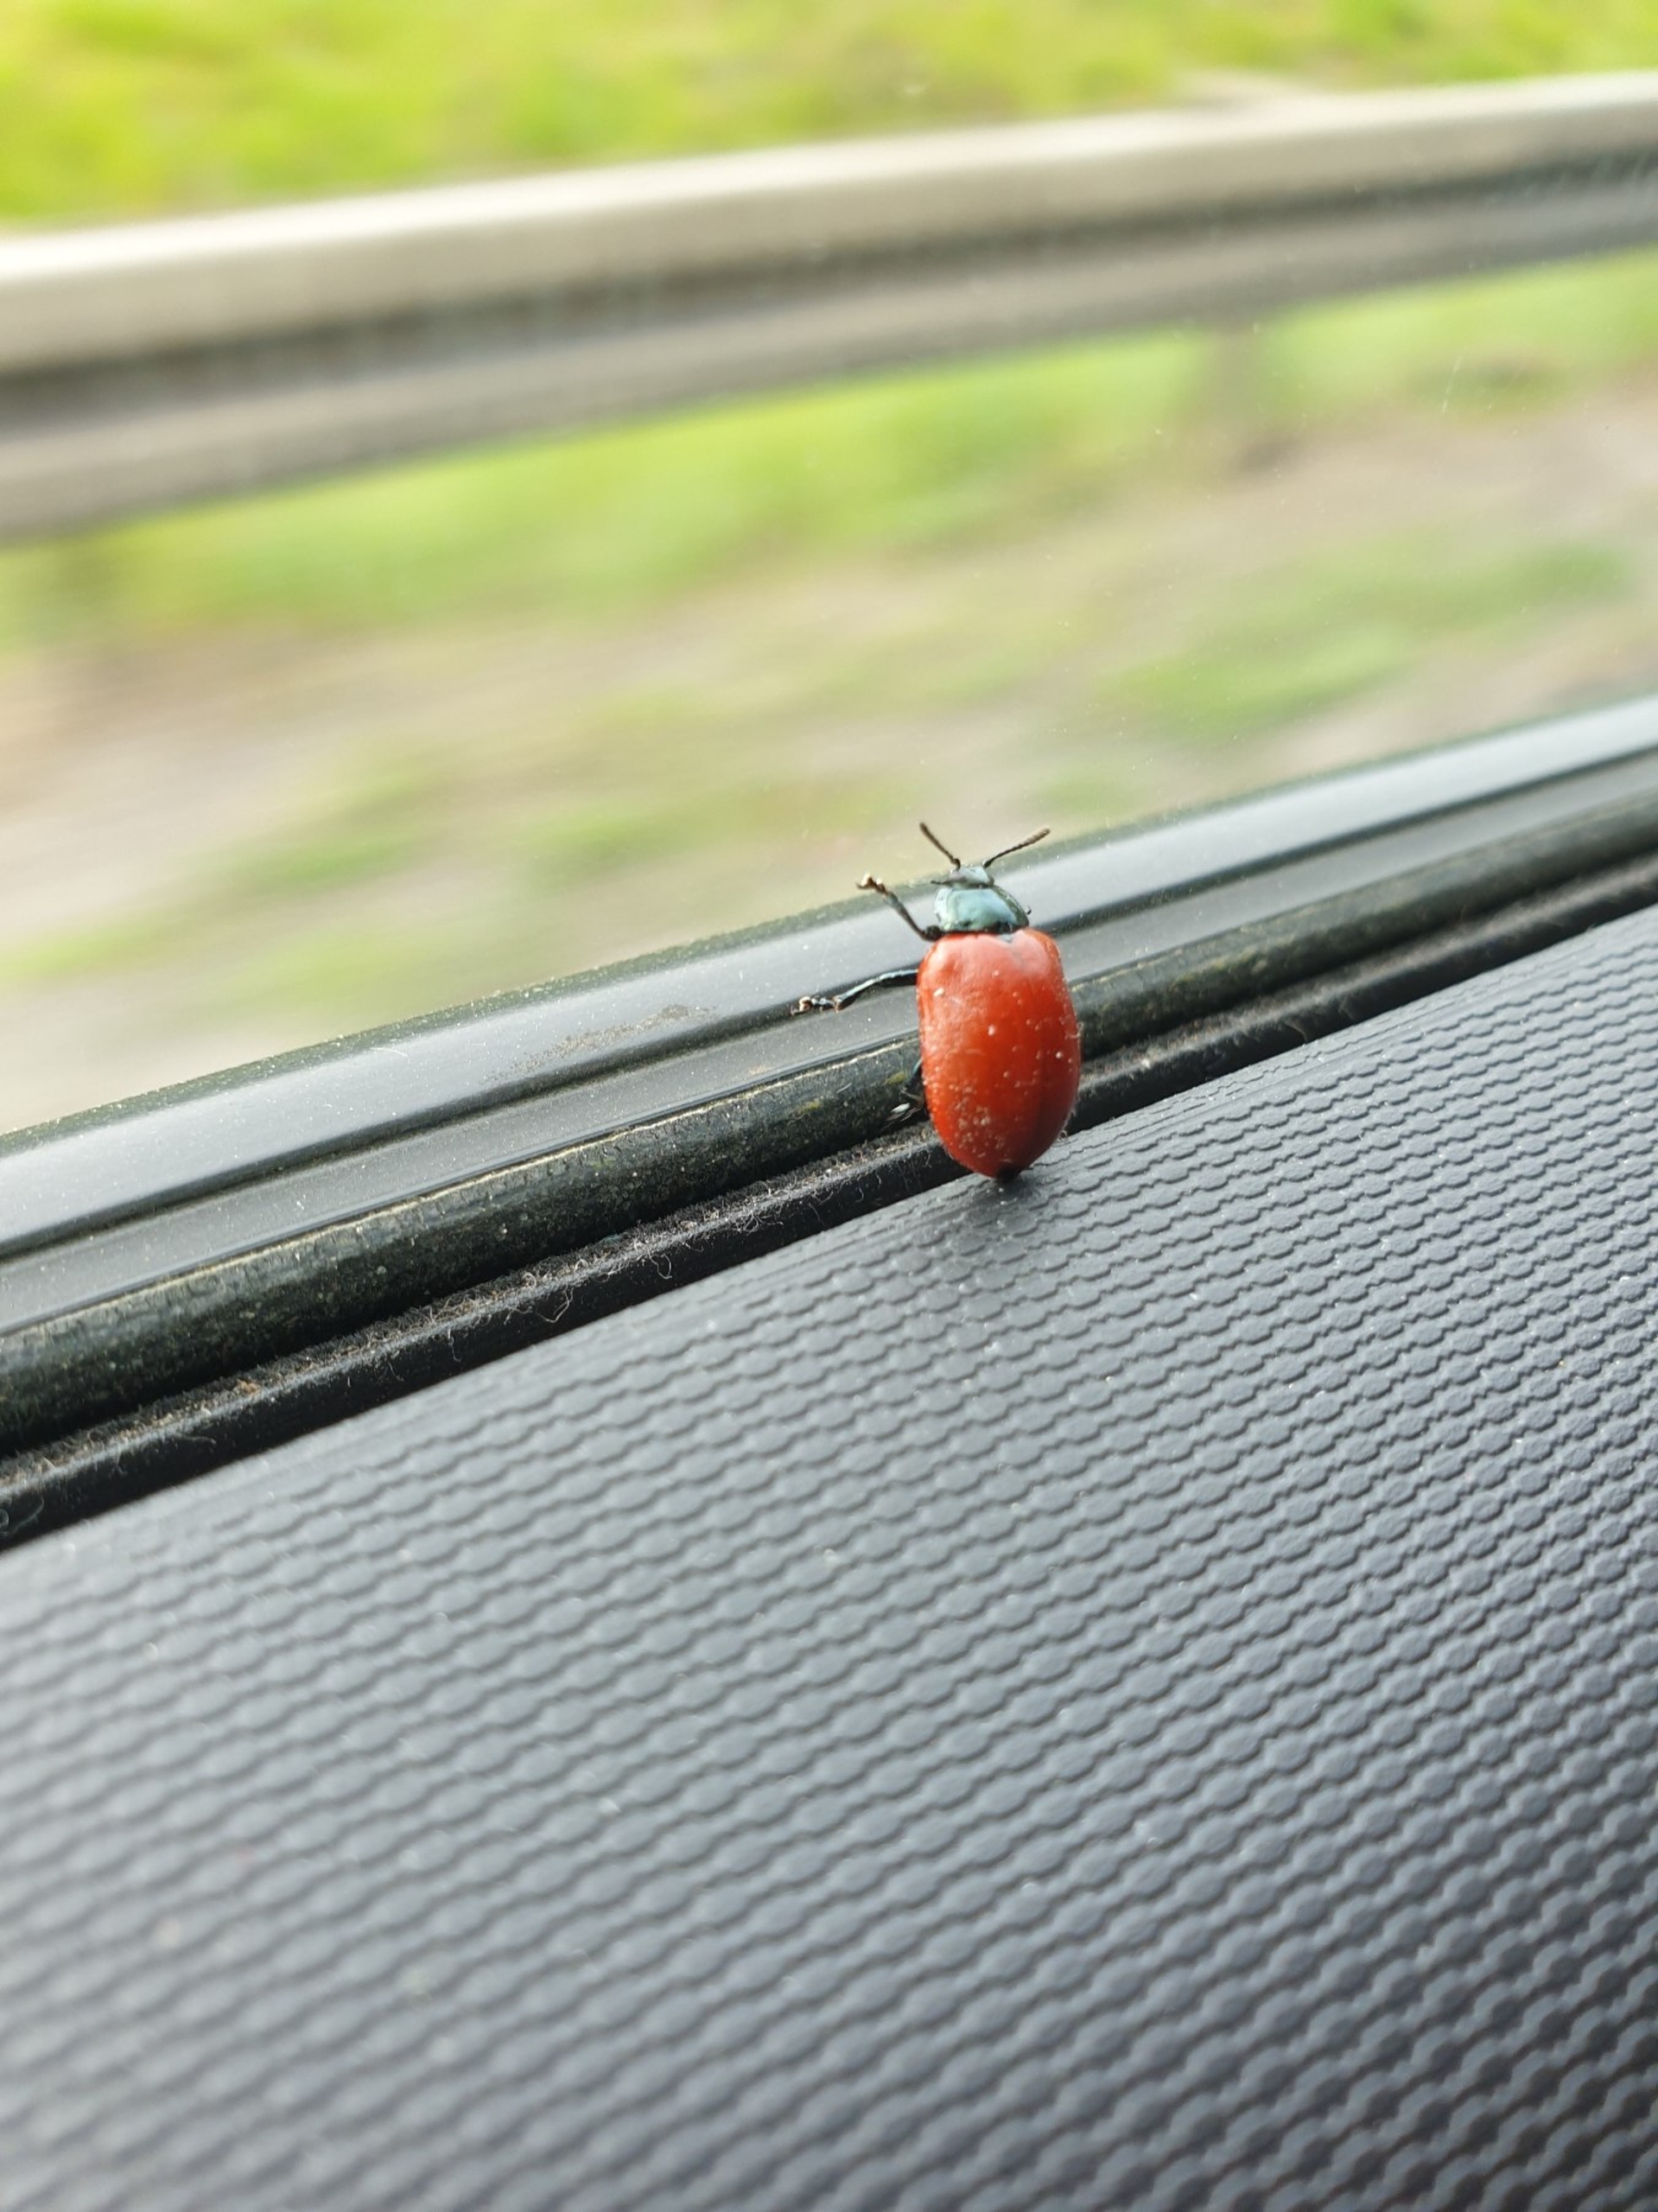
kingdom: Animalia
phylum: Arthropoda
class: Insecta
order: Coleoptera
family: Chrysomelidae
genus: Chrysomela
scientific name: Chrysomela populi
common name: Poppelbladbille
